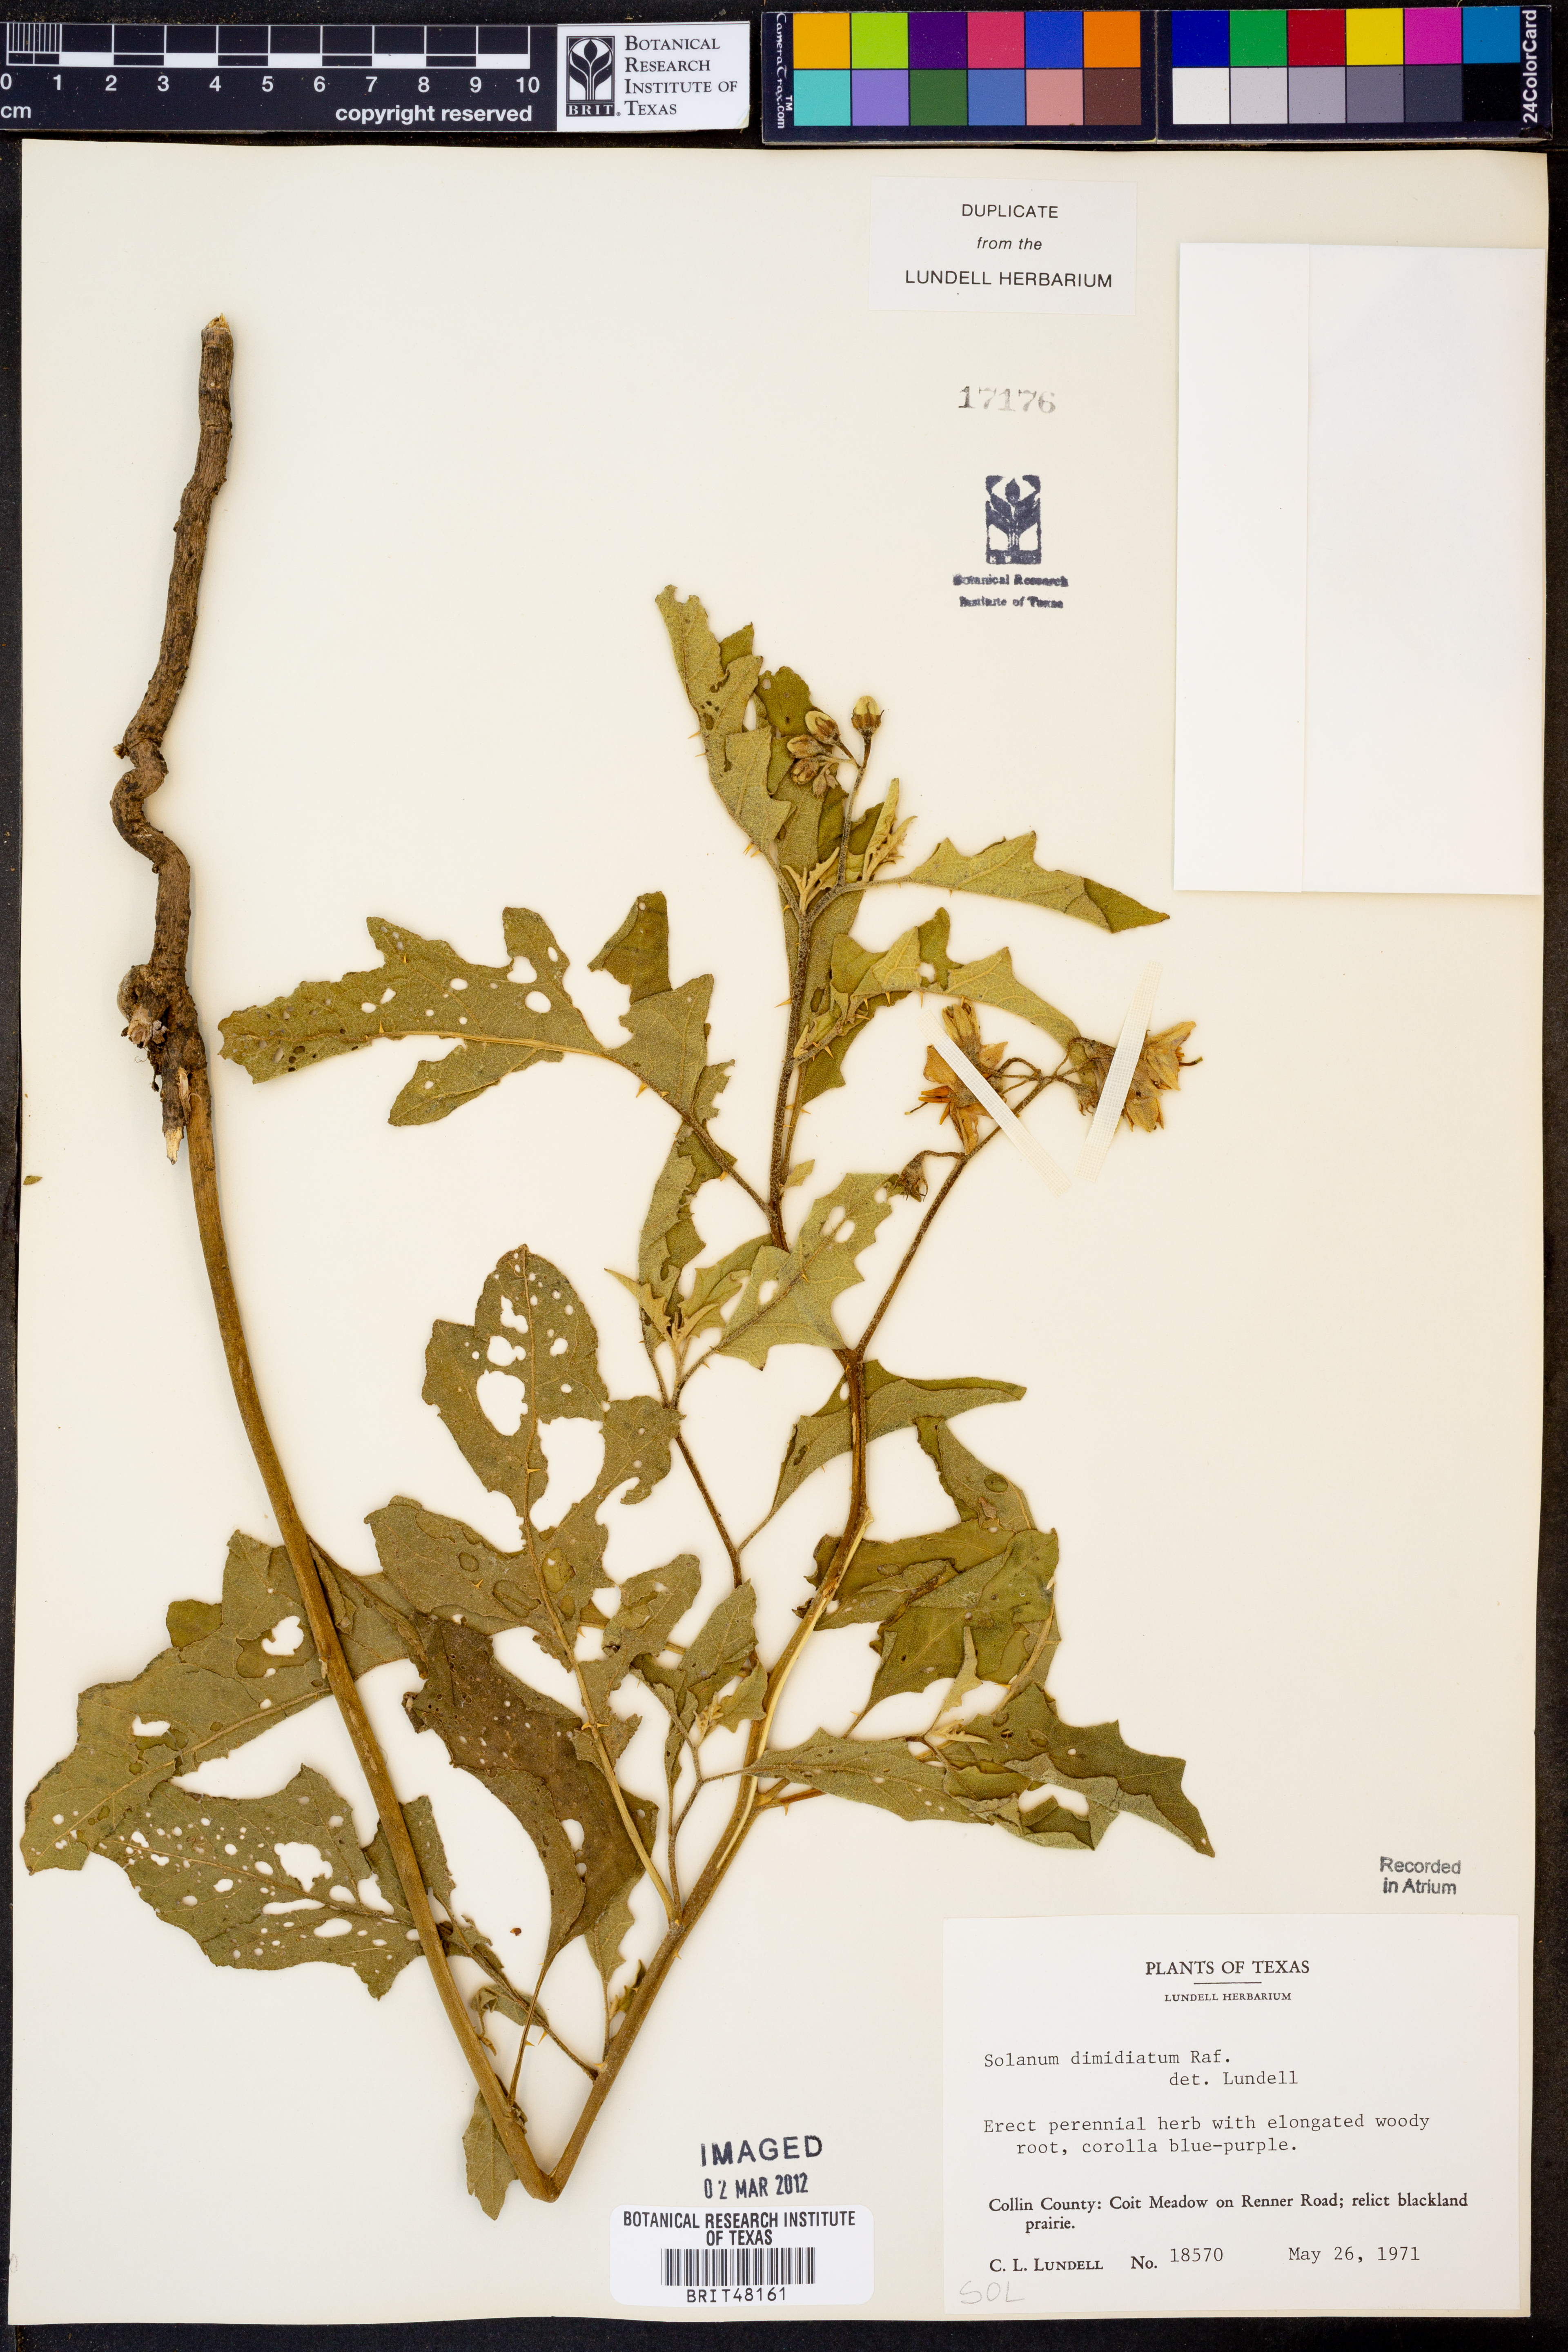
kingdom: Plantae
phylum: Tracheophyta
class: Magnoliopsida
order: Solanales
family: Solanaceae
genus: Solanum
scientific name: Solanum dimidiatum
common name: Carolina horse-nettle
